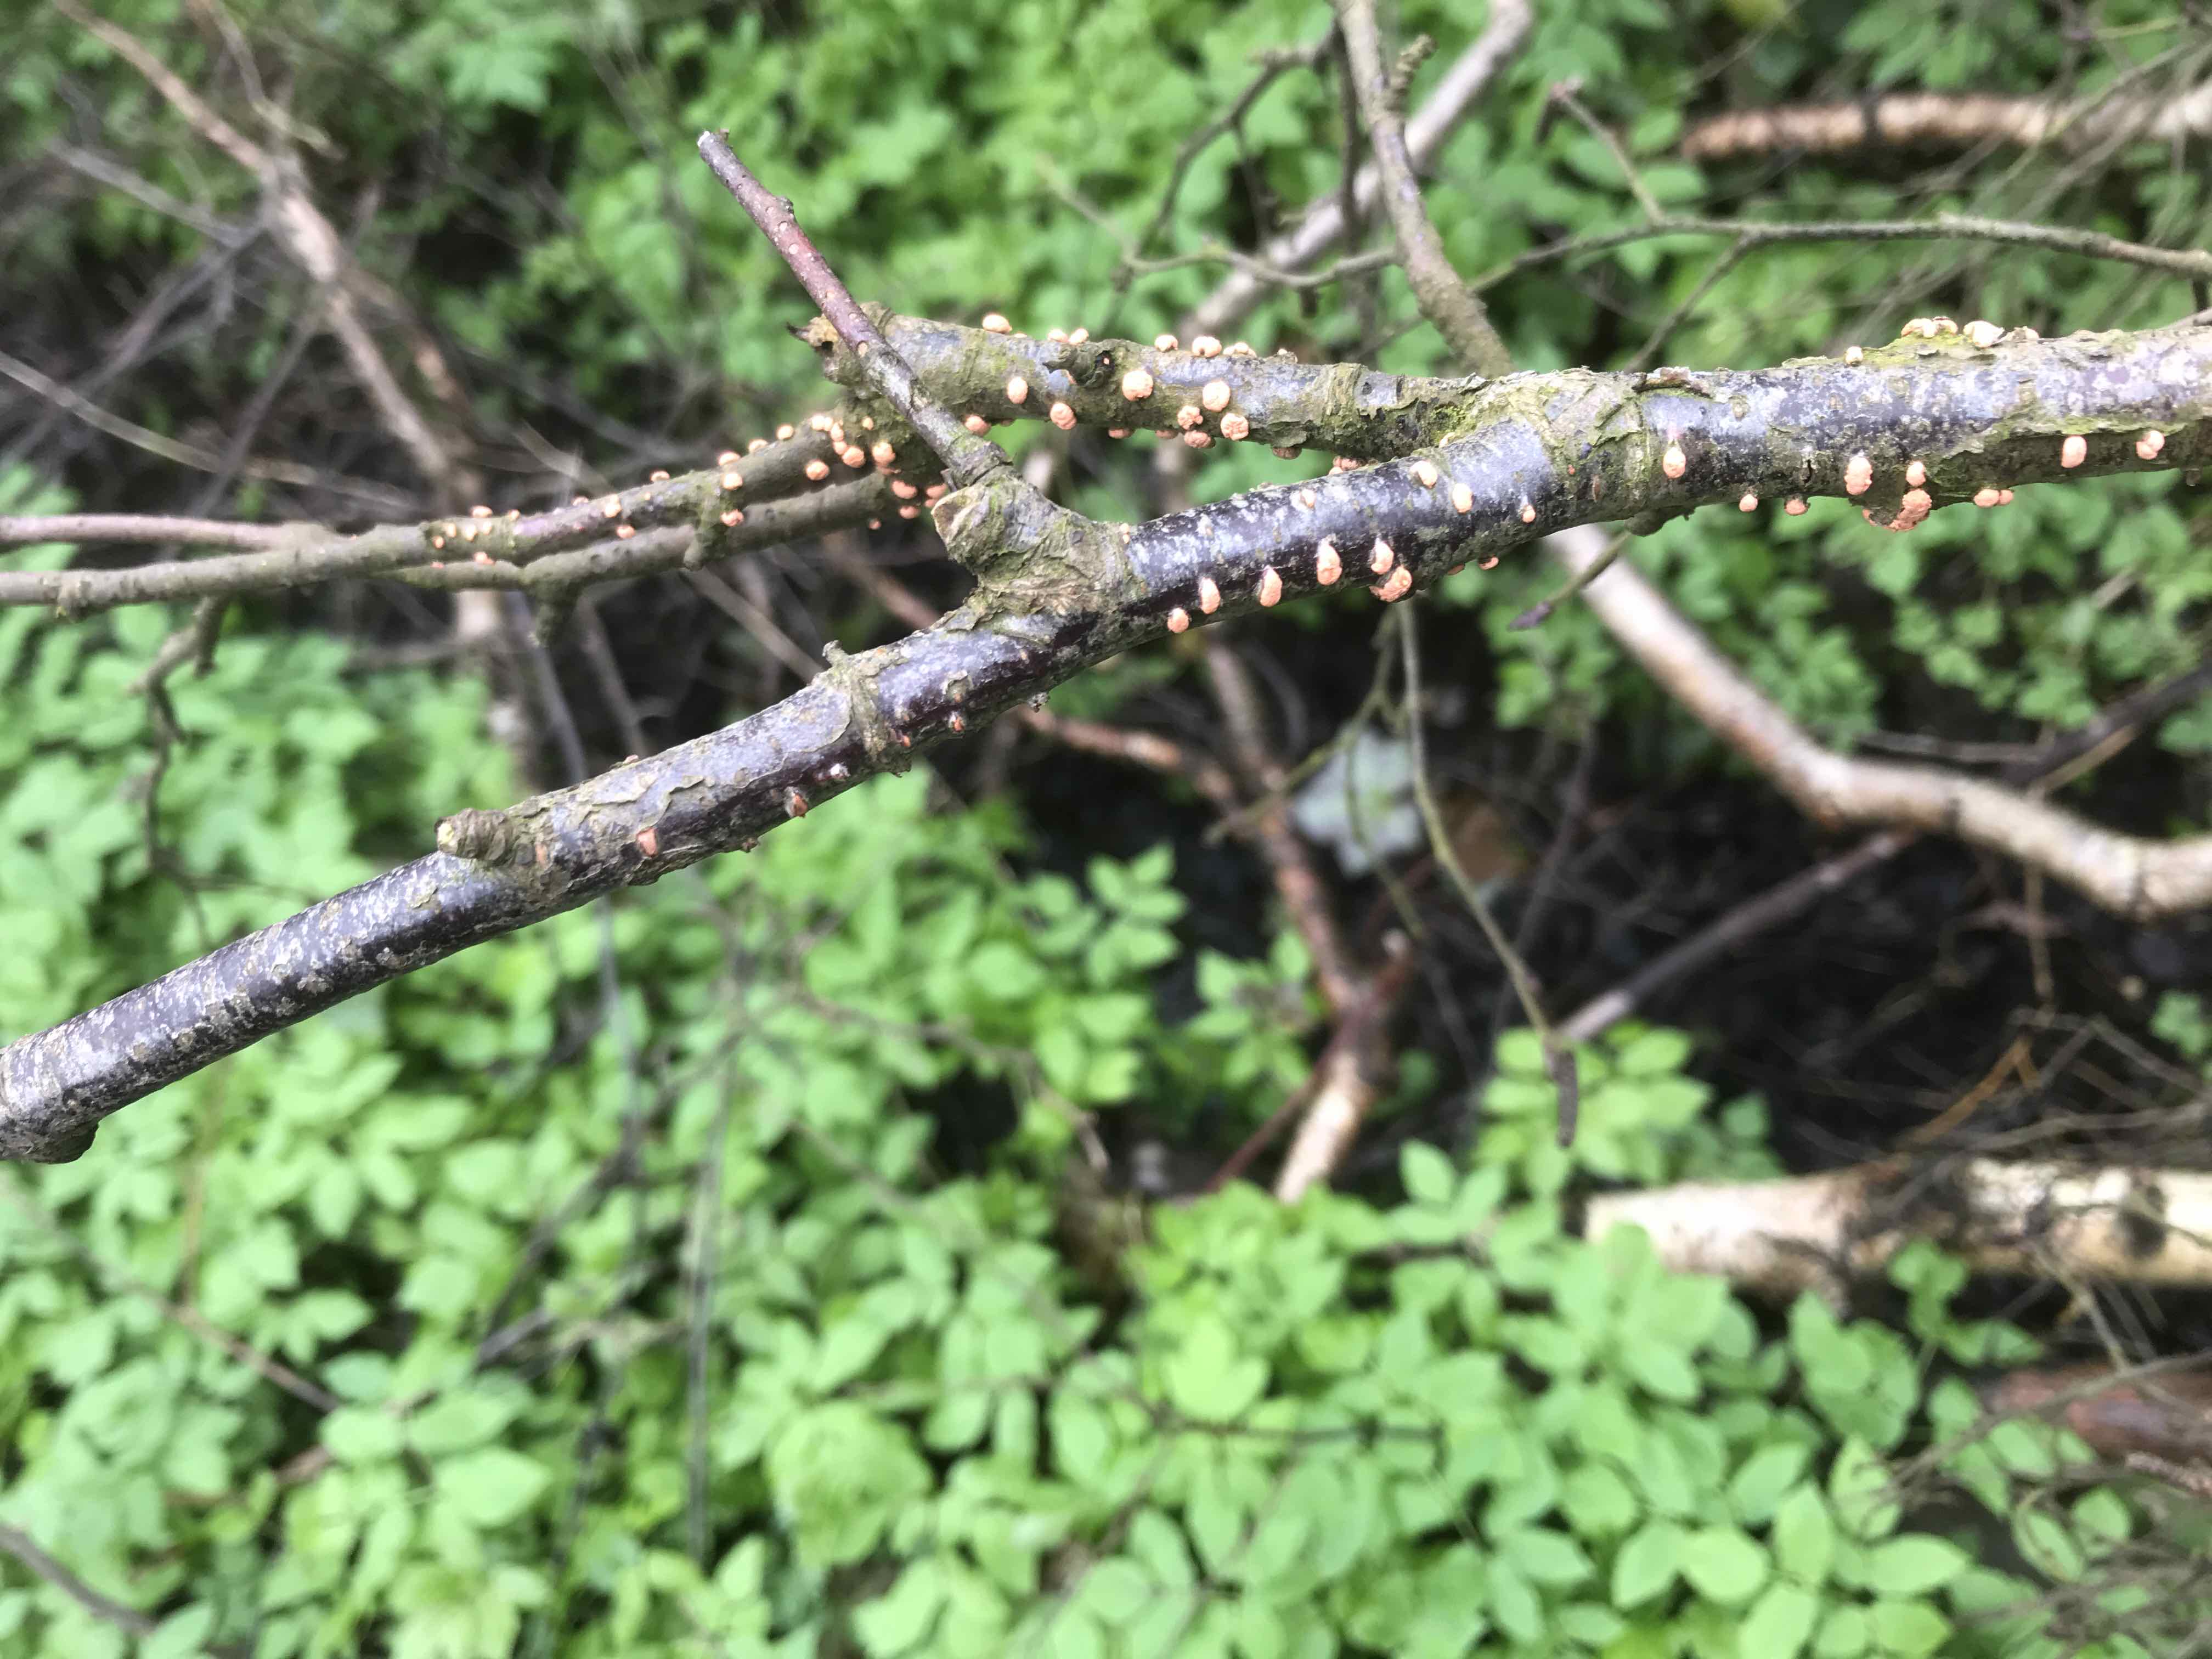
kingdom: Fungi
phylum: Ascomycota
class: Sordariomycetes
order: Hypocreales
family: Nectriaceae
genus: Nectria
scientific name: Nectria cinnabarina
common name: almindelig cinnobersvamp
